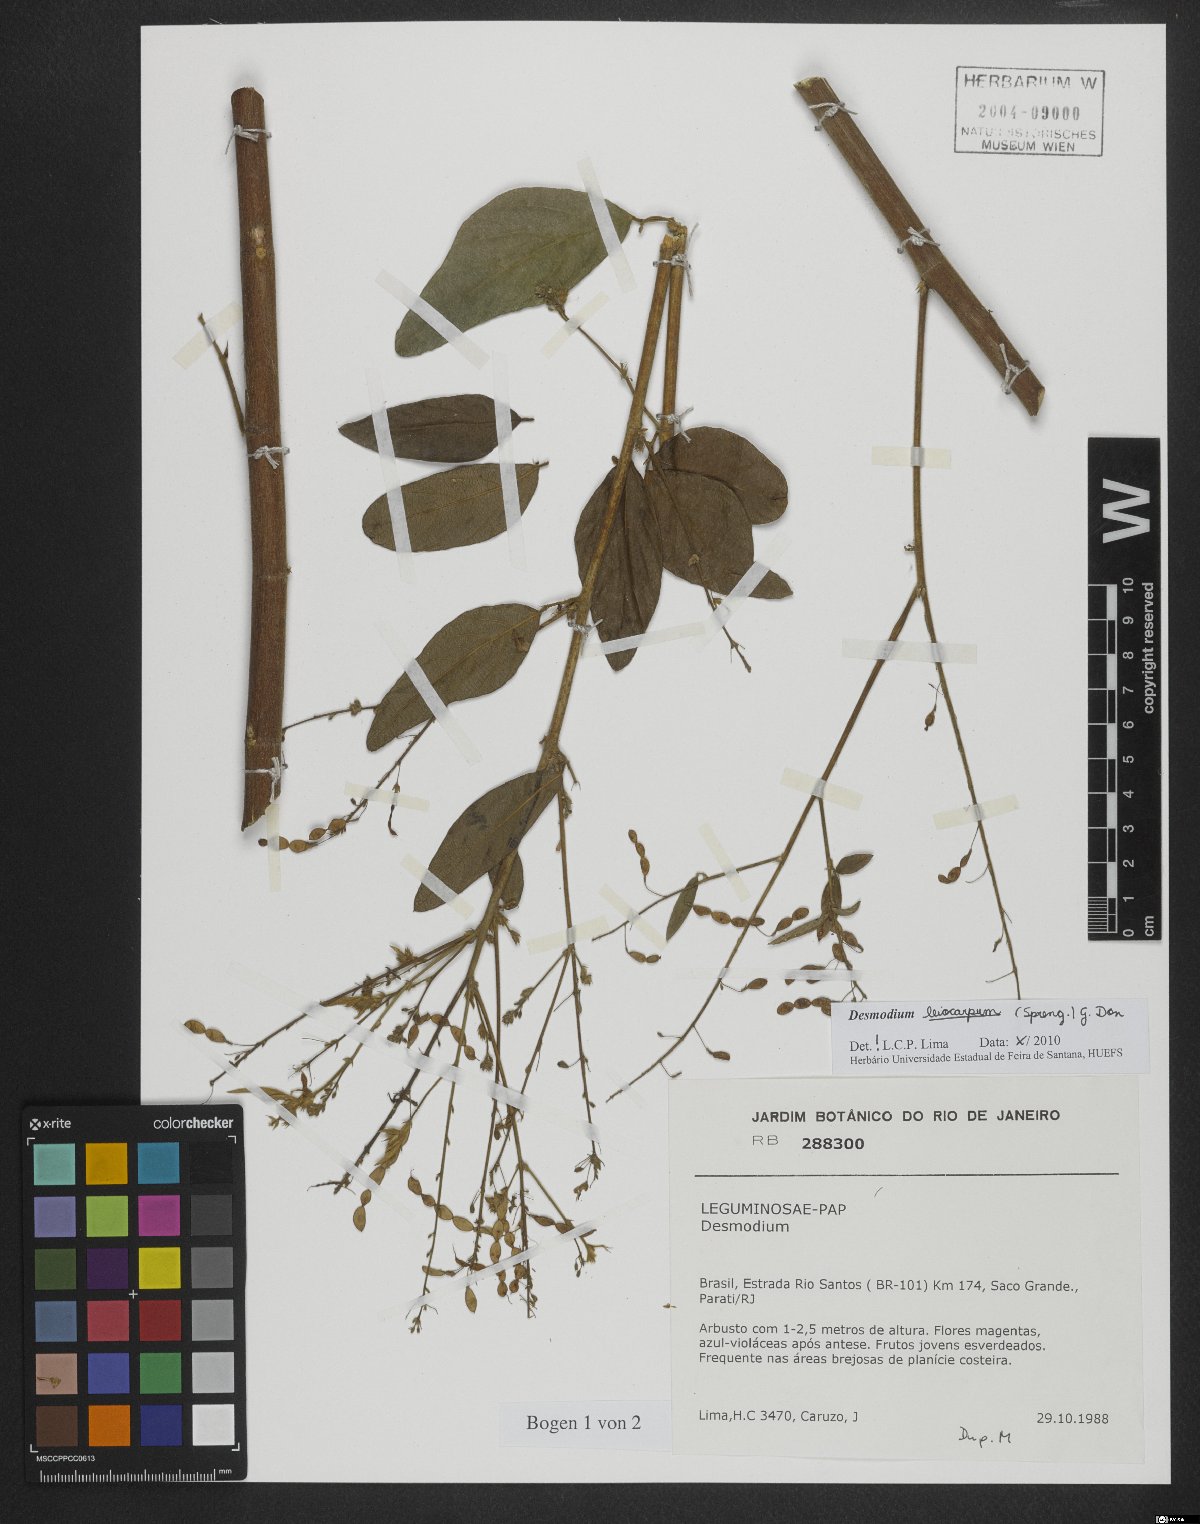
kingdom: Plantae
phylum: Tracheophyta
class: Magnoliopsida
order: Fabales
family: Fabaceae
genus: Desmodium
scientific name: Desmodium leiocarpum
